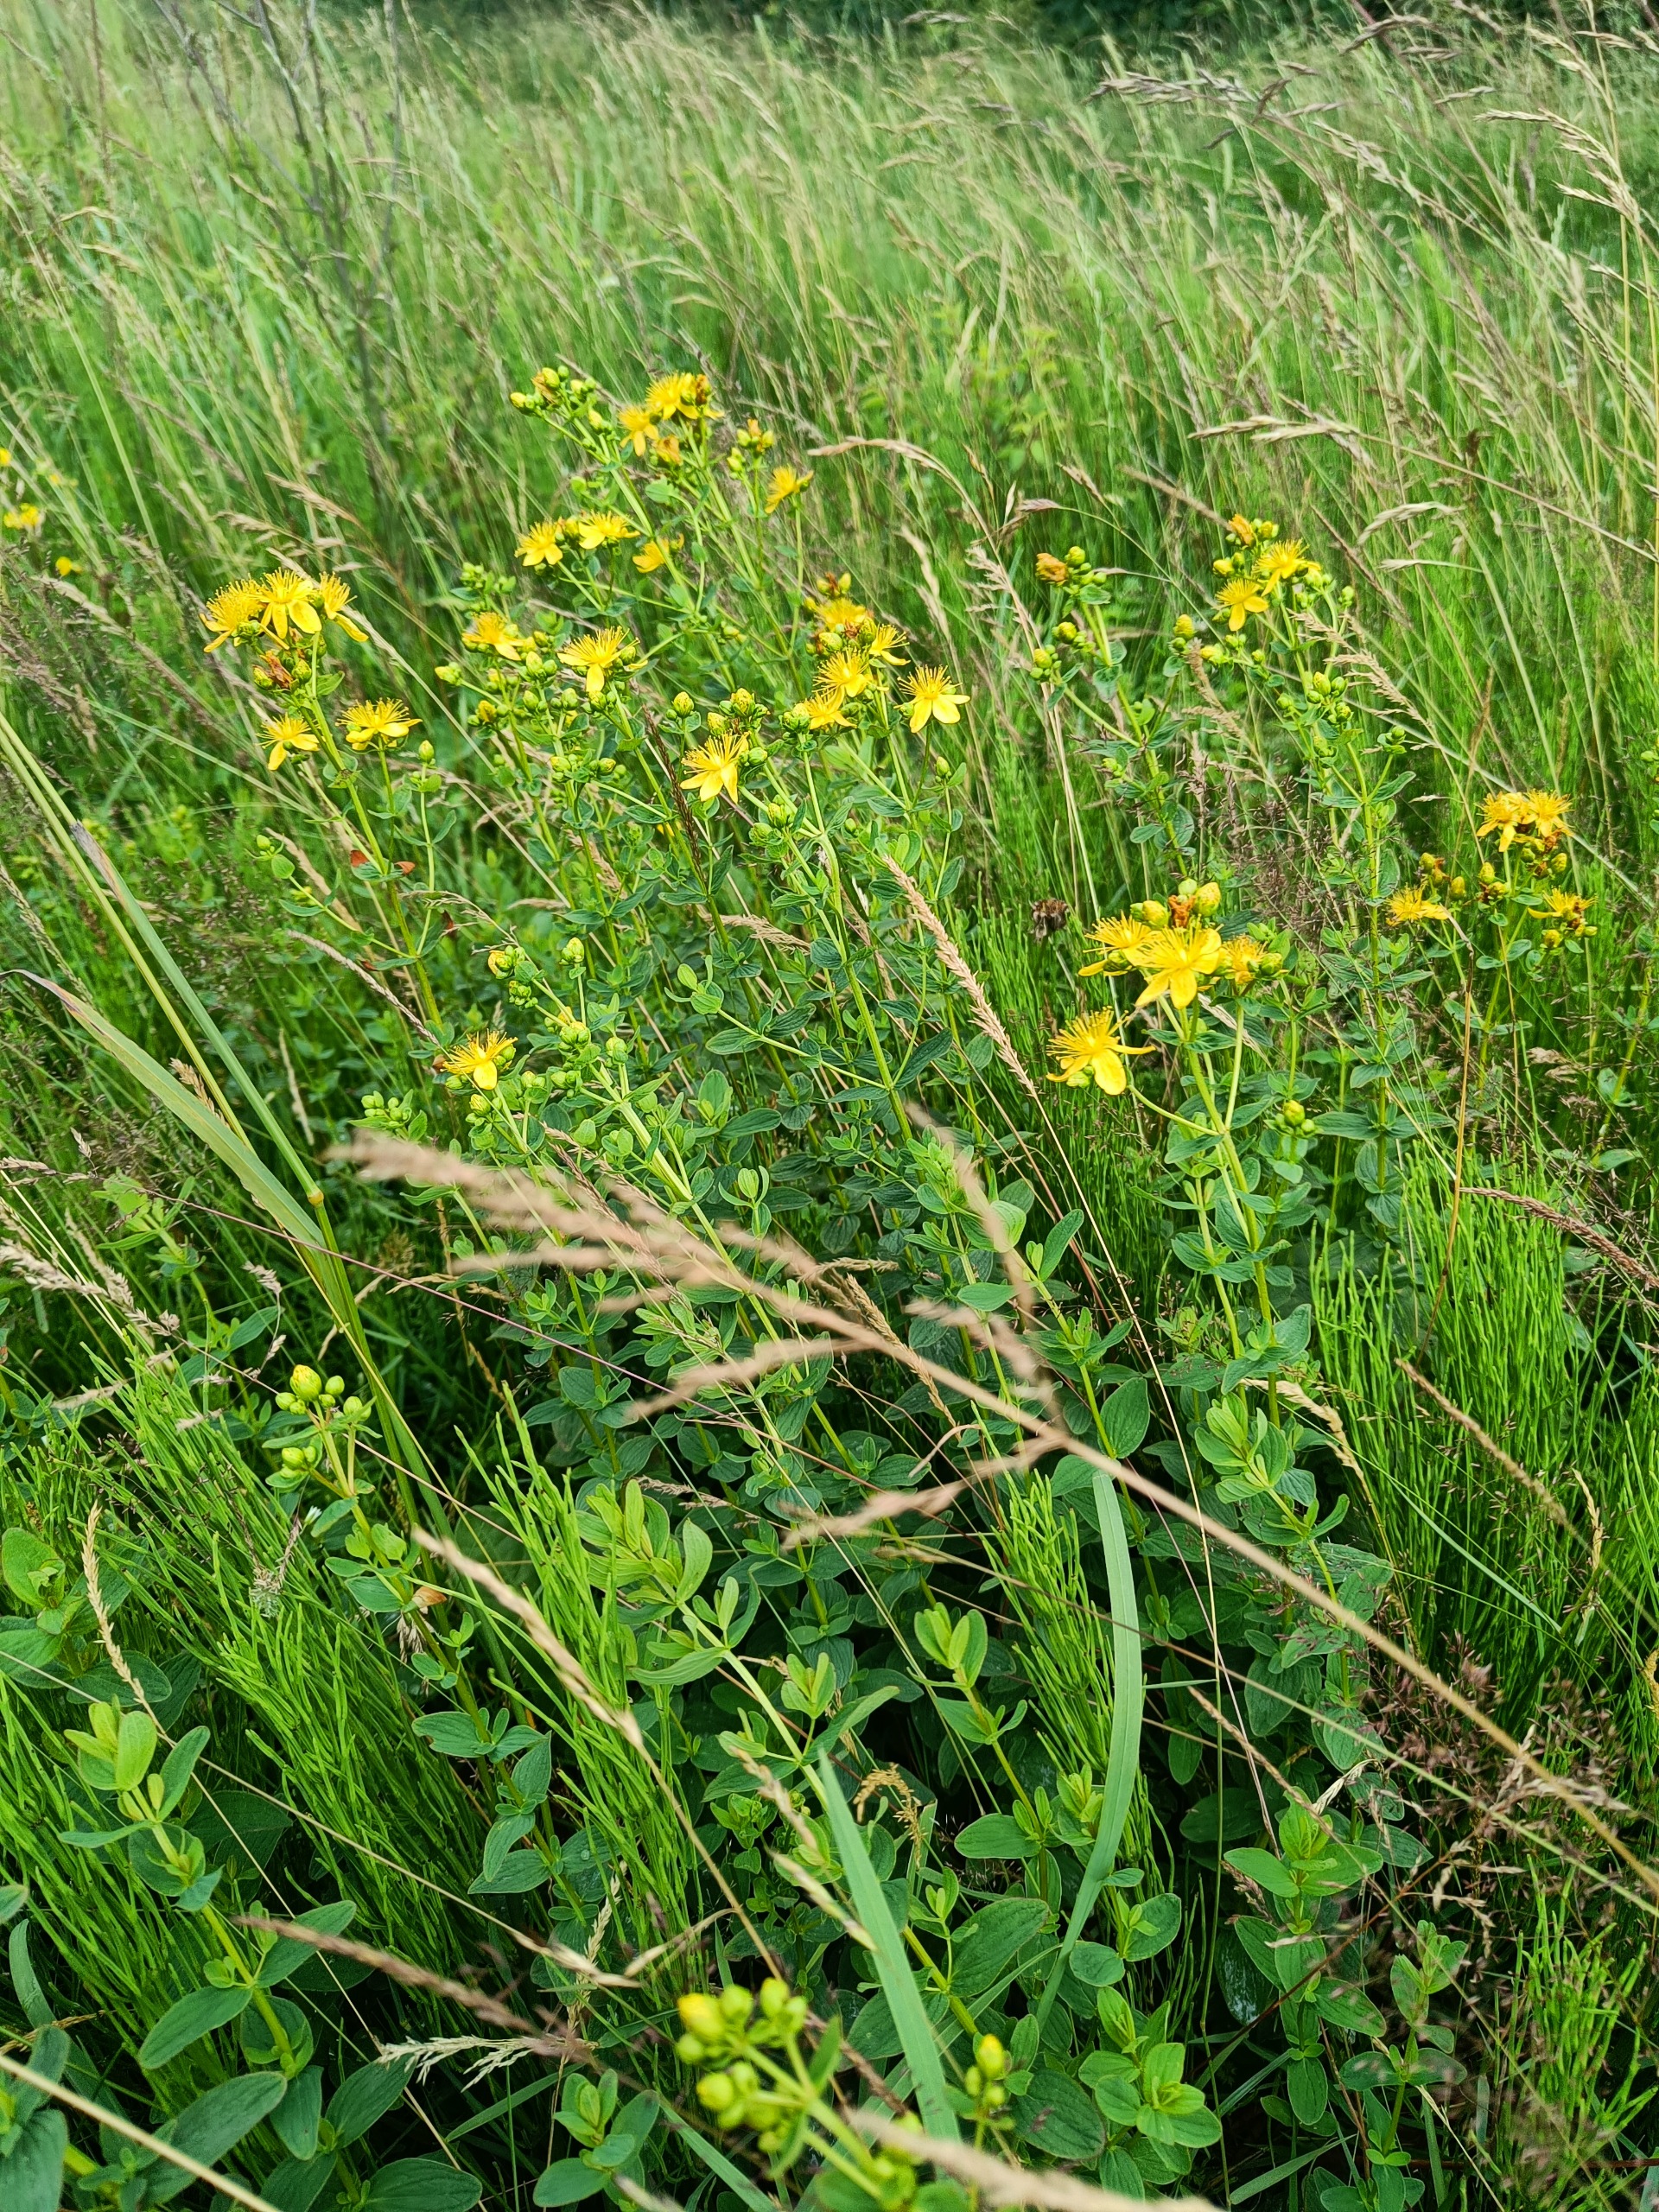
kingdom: Plantae
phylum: Tracheophyta
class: Magnoliopsida
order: Malpighiales
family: Hypericaceae
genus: Hypericum
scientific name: Hypericum maculatum
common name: Kantet perikon
